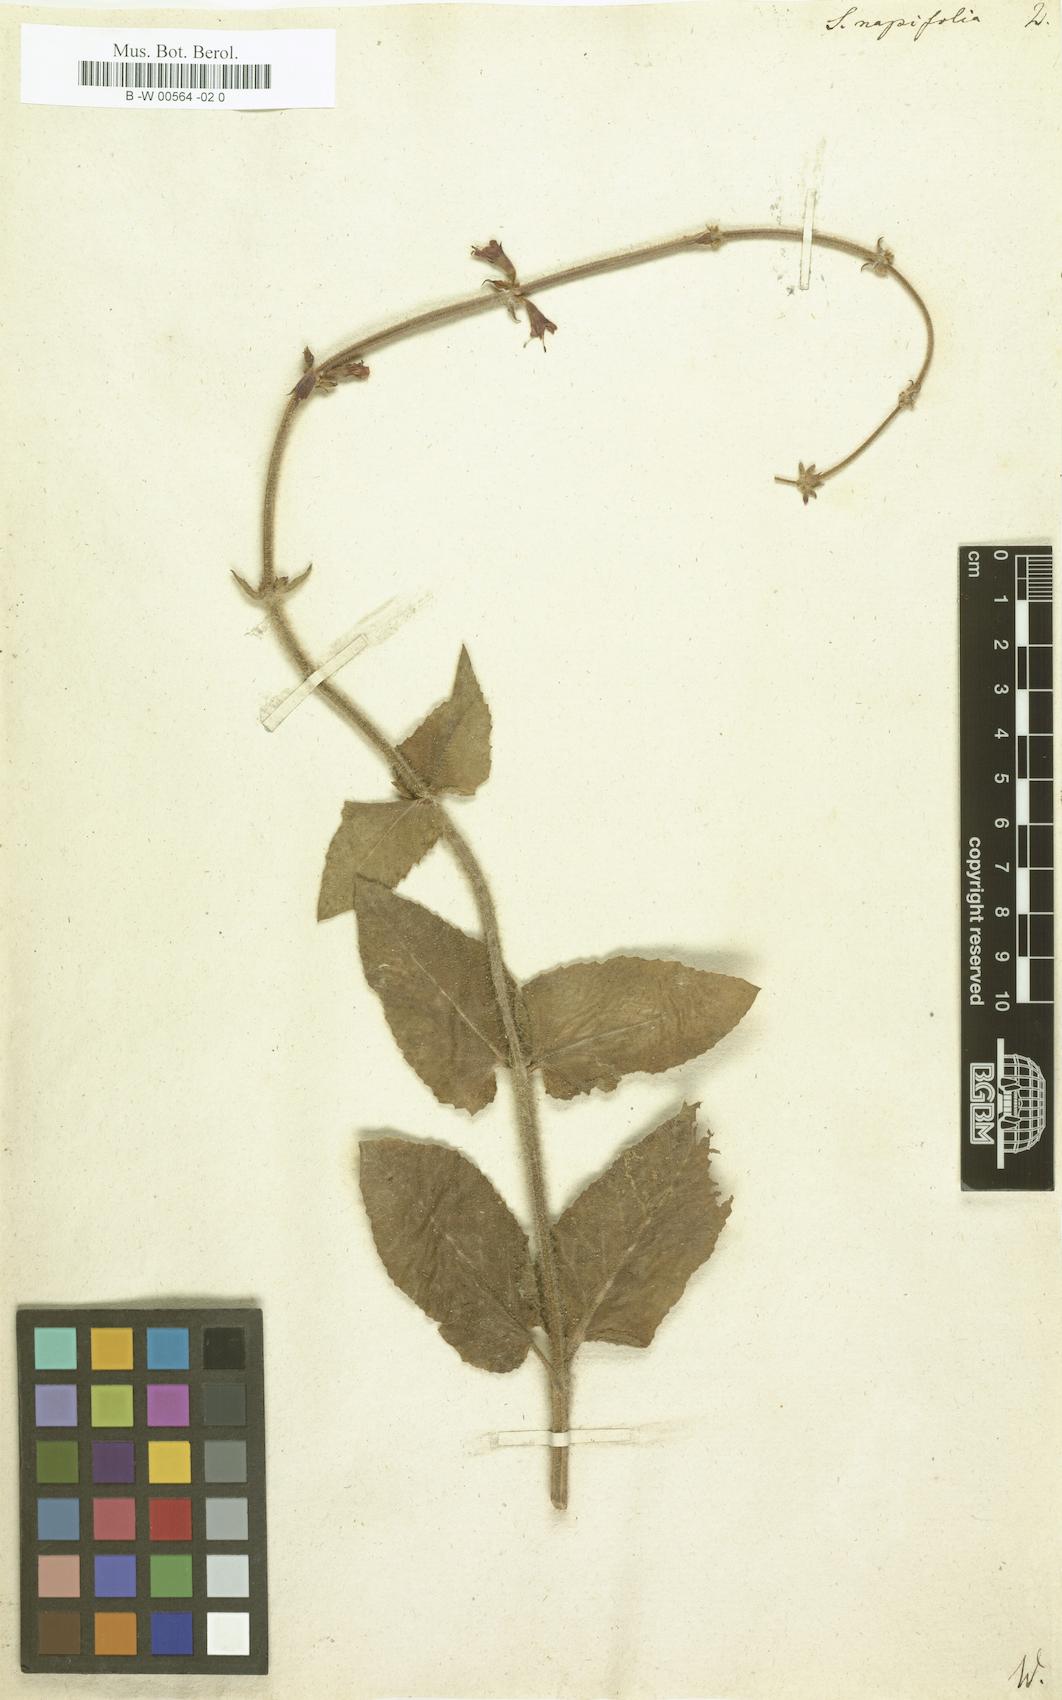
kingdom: Plantae
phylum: Tracheophyta
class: Magnoliopsida
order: Lamiales
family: Lamiaceae
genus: Salvia
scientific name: Salvia napifolia
